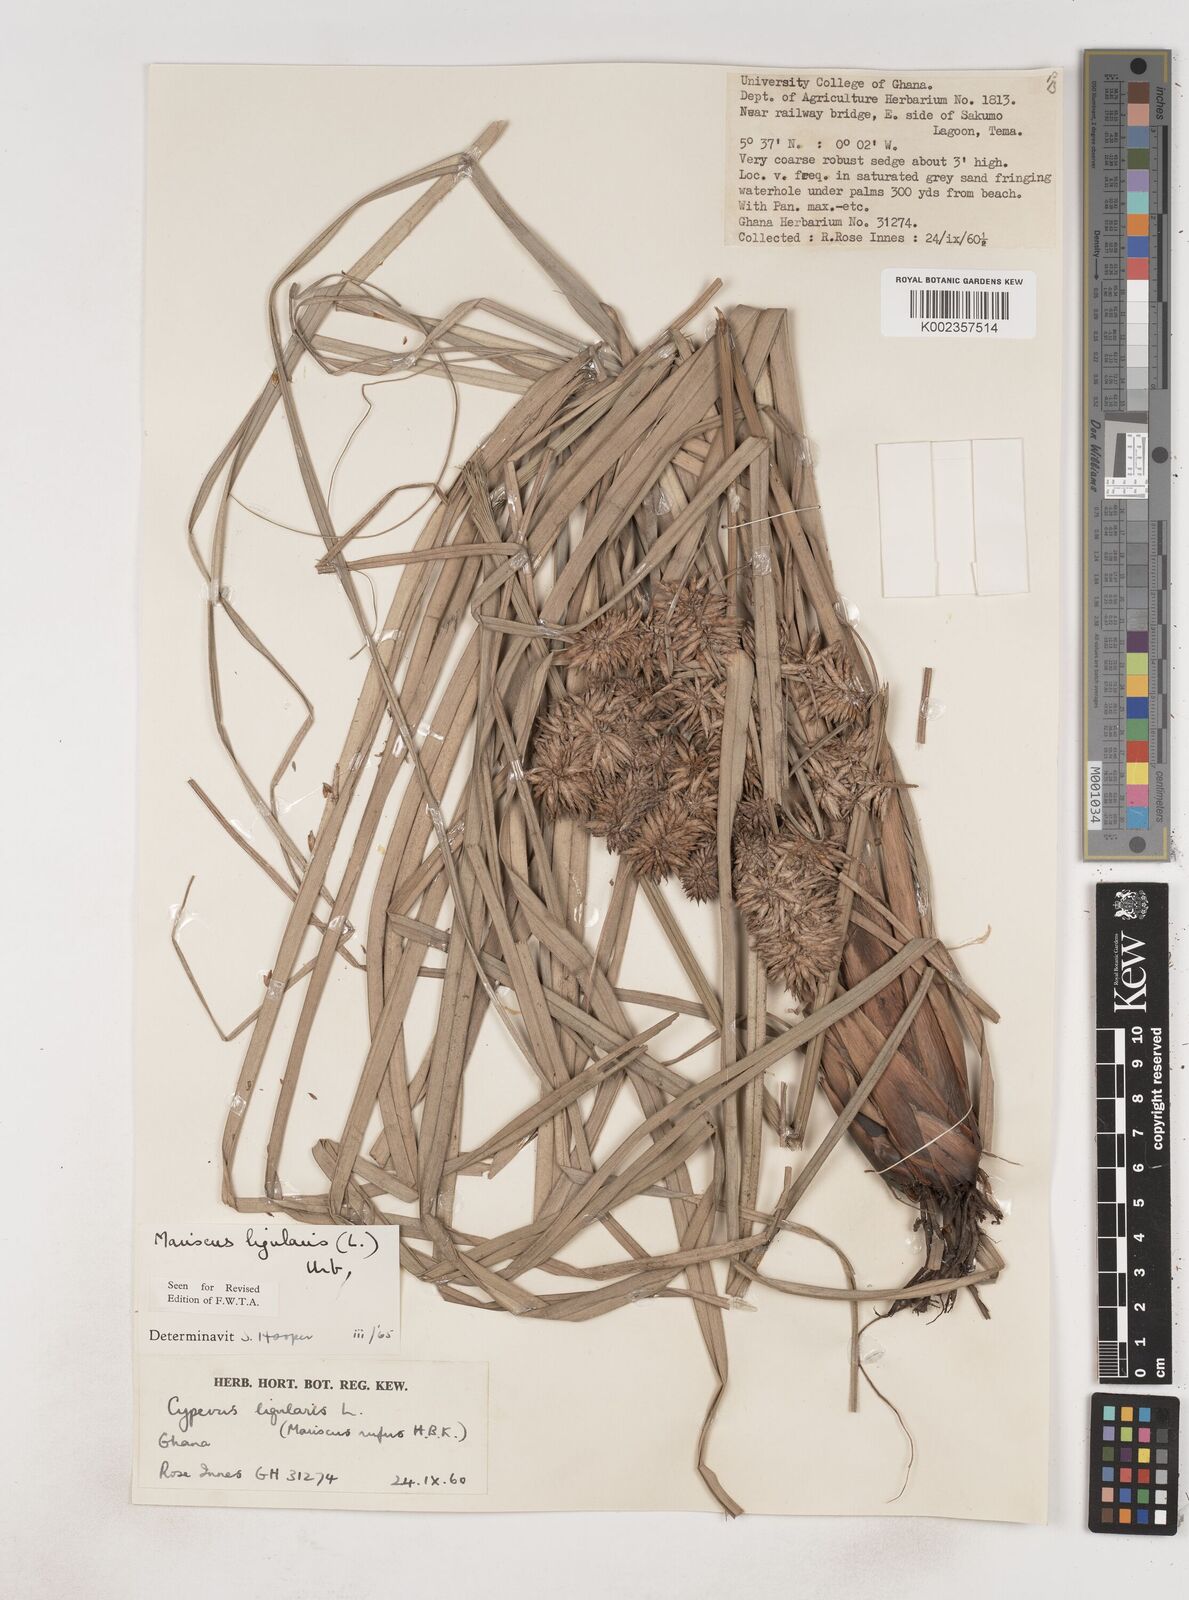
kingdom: Plantae
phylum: Tracheophyta
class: Liliopsida
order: Poales
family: Cyperaceae
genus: Cyperus
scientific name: Cyperus ligularis
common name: Swamp flat sedge
